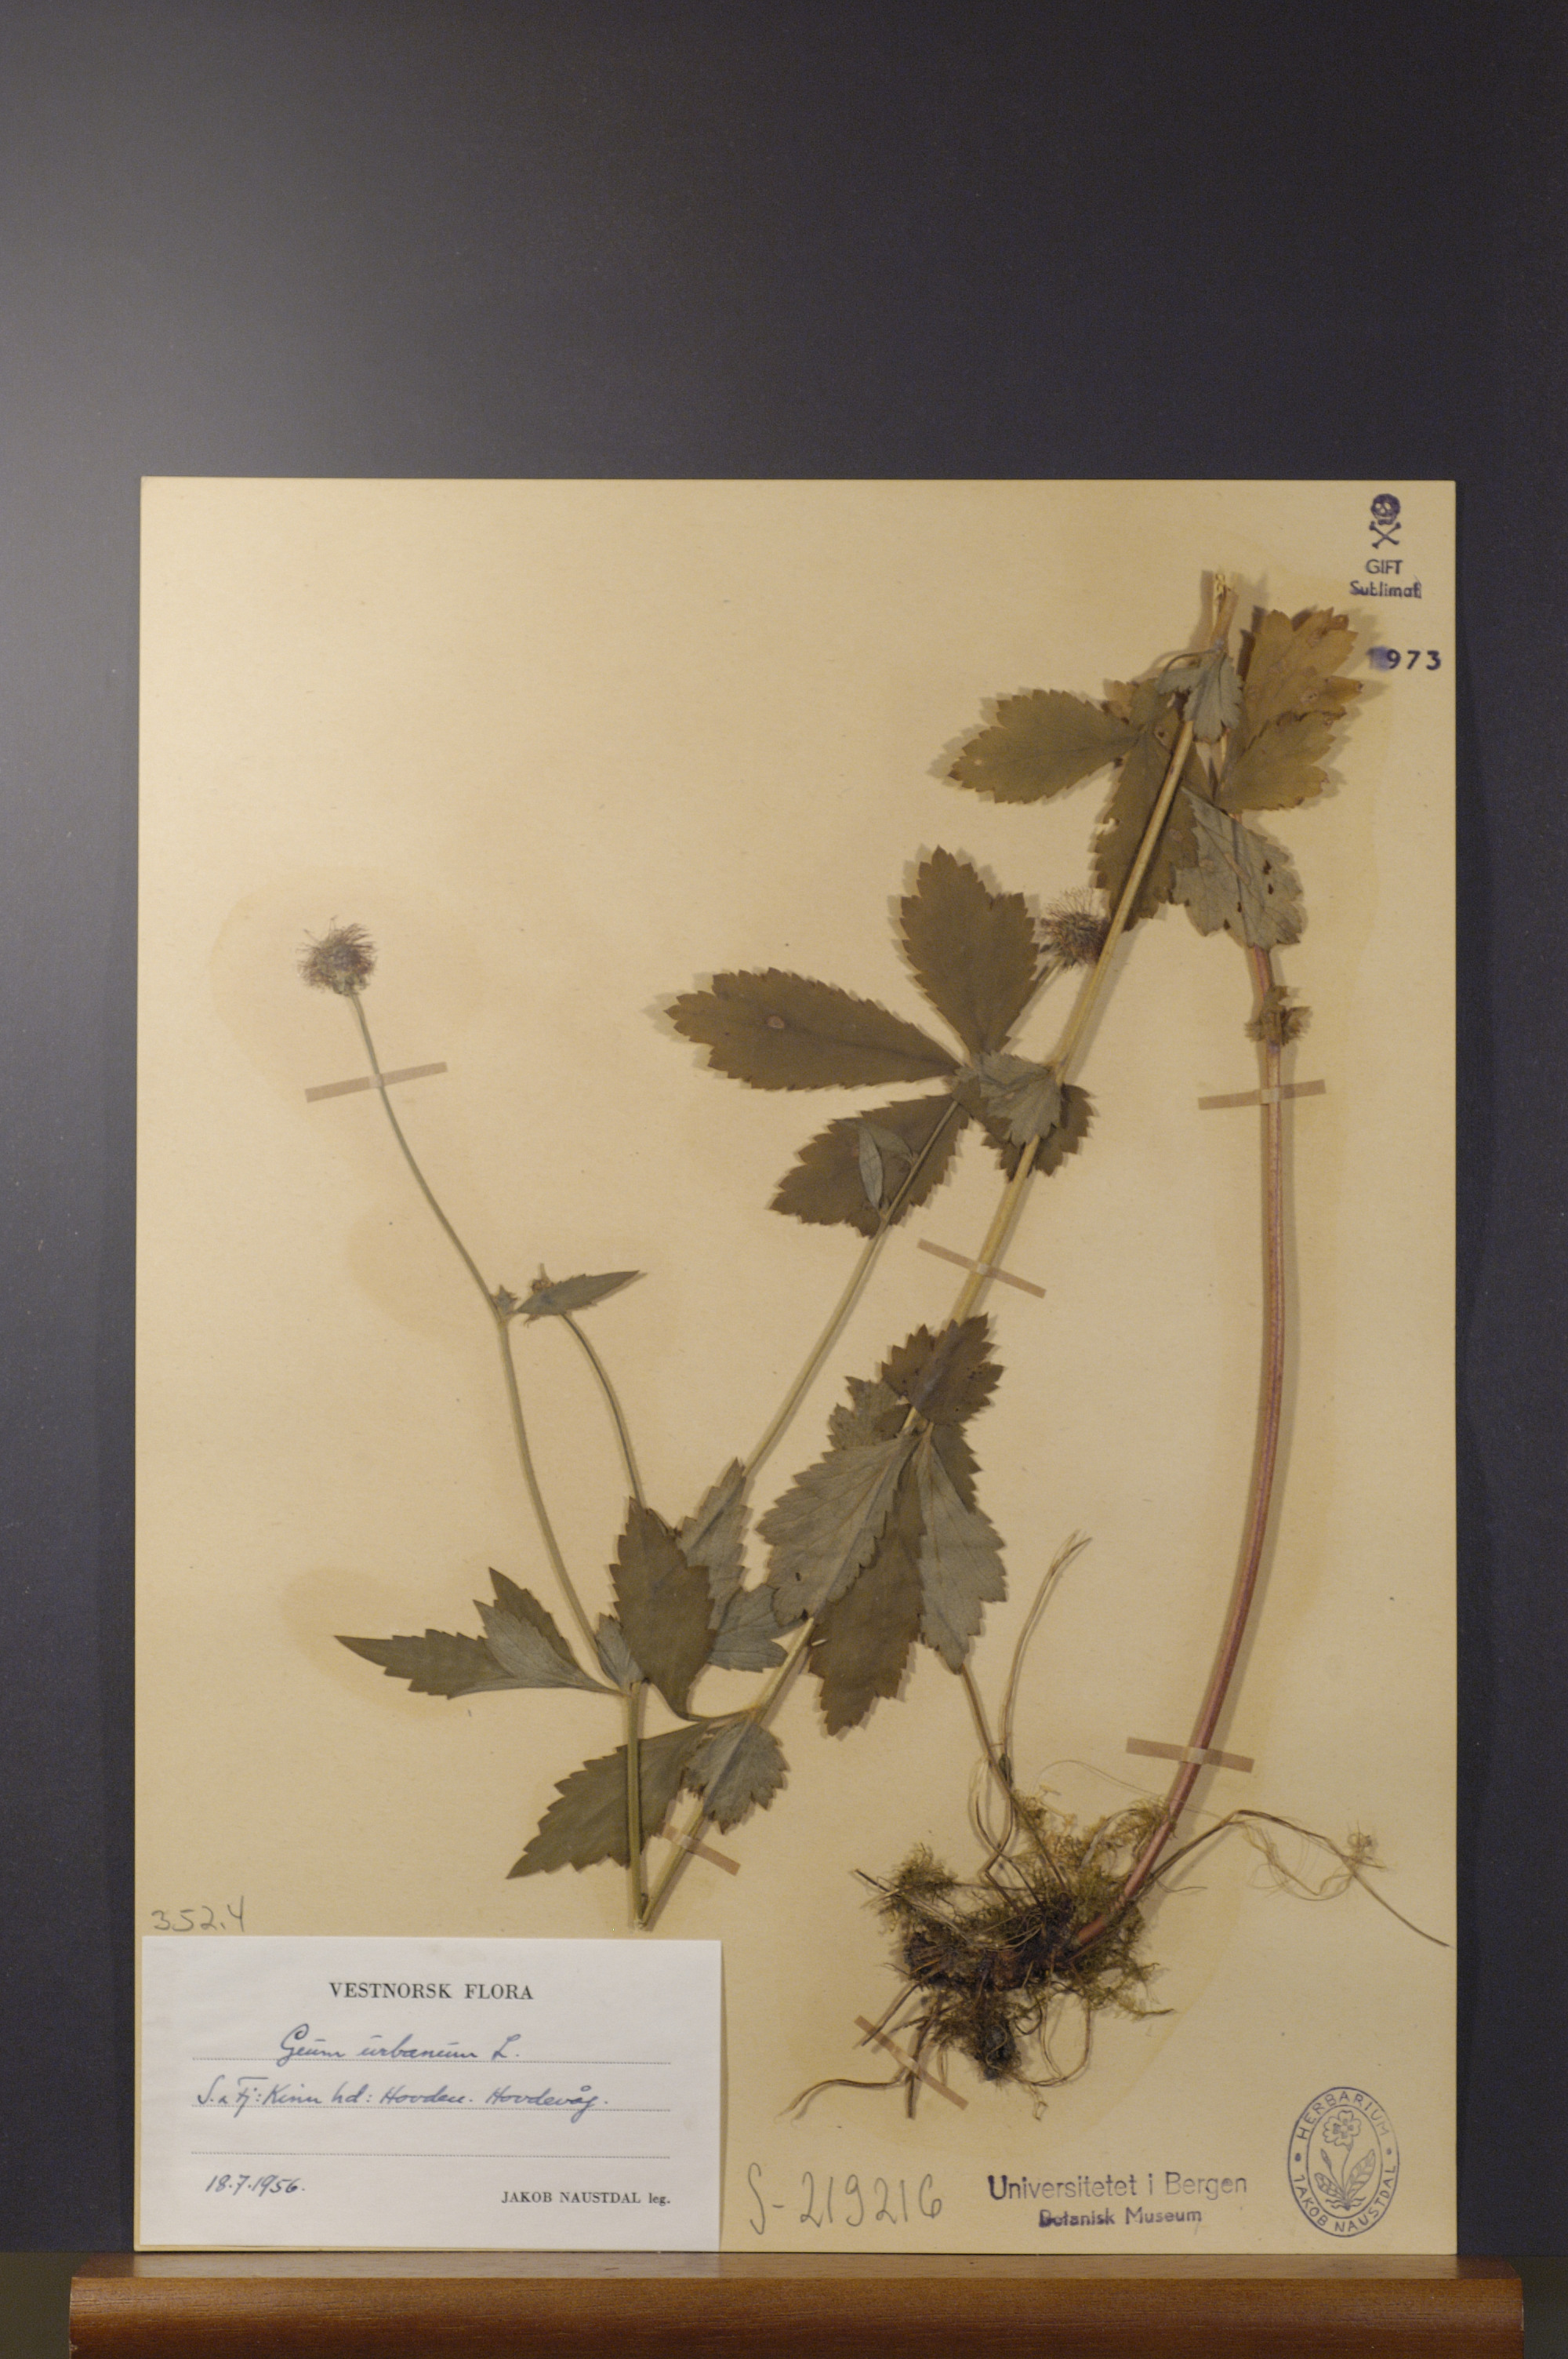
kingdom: Plantae
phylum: Tracheophyta
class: Magnoliopsida
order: Rosales
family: Rosaceae
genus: Geum
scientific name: Geum urbanum
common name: Wood avens
